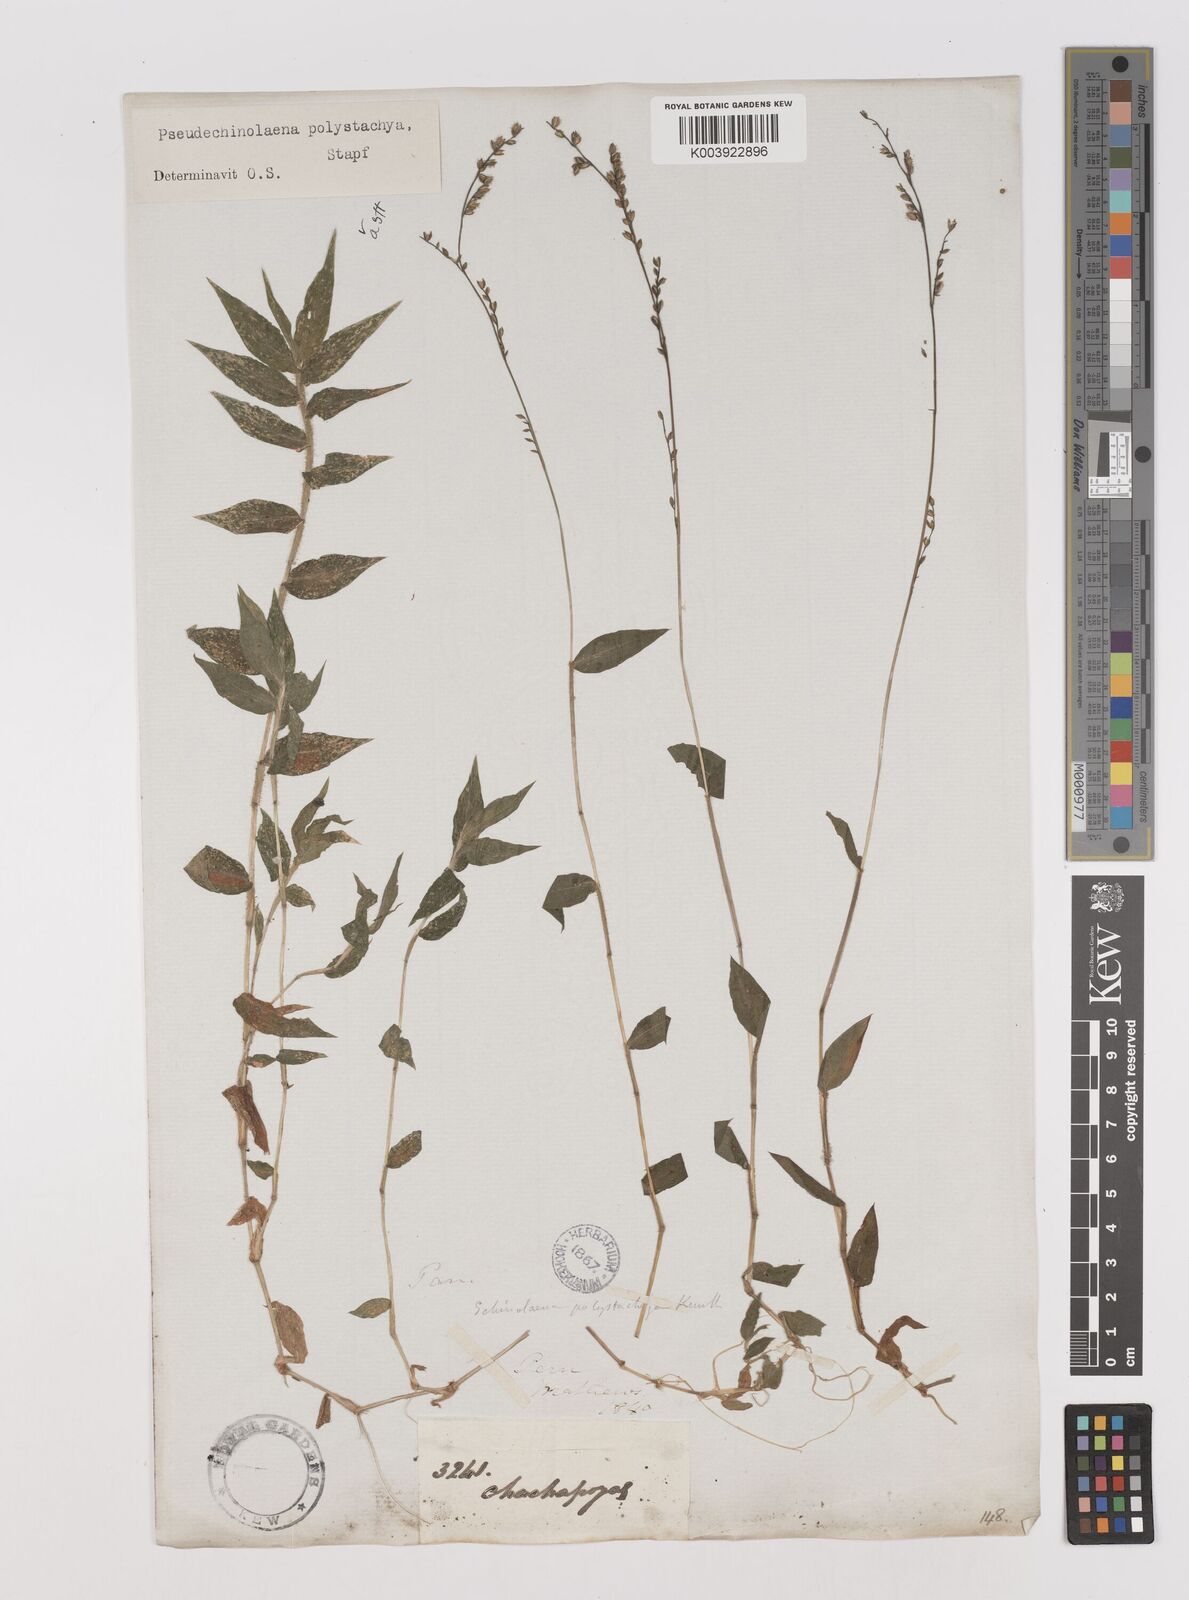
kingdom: Plantae
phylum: Tracheophyta
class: Liliopsida
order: Poales
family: Poaceae
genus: Pseudechinolaena
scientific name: Pseudechinolaena polystachya
